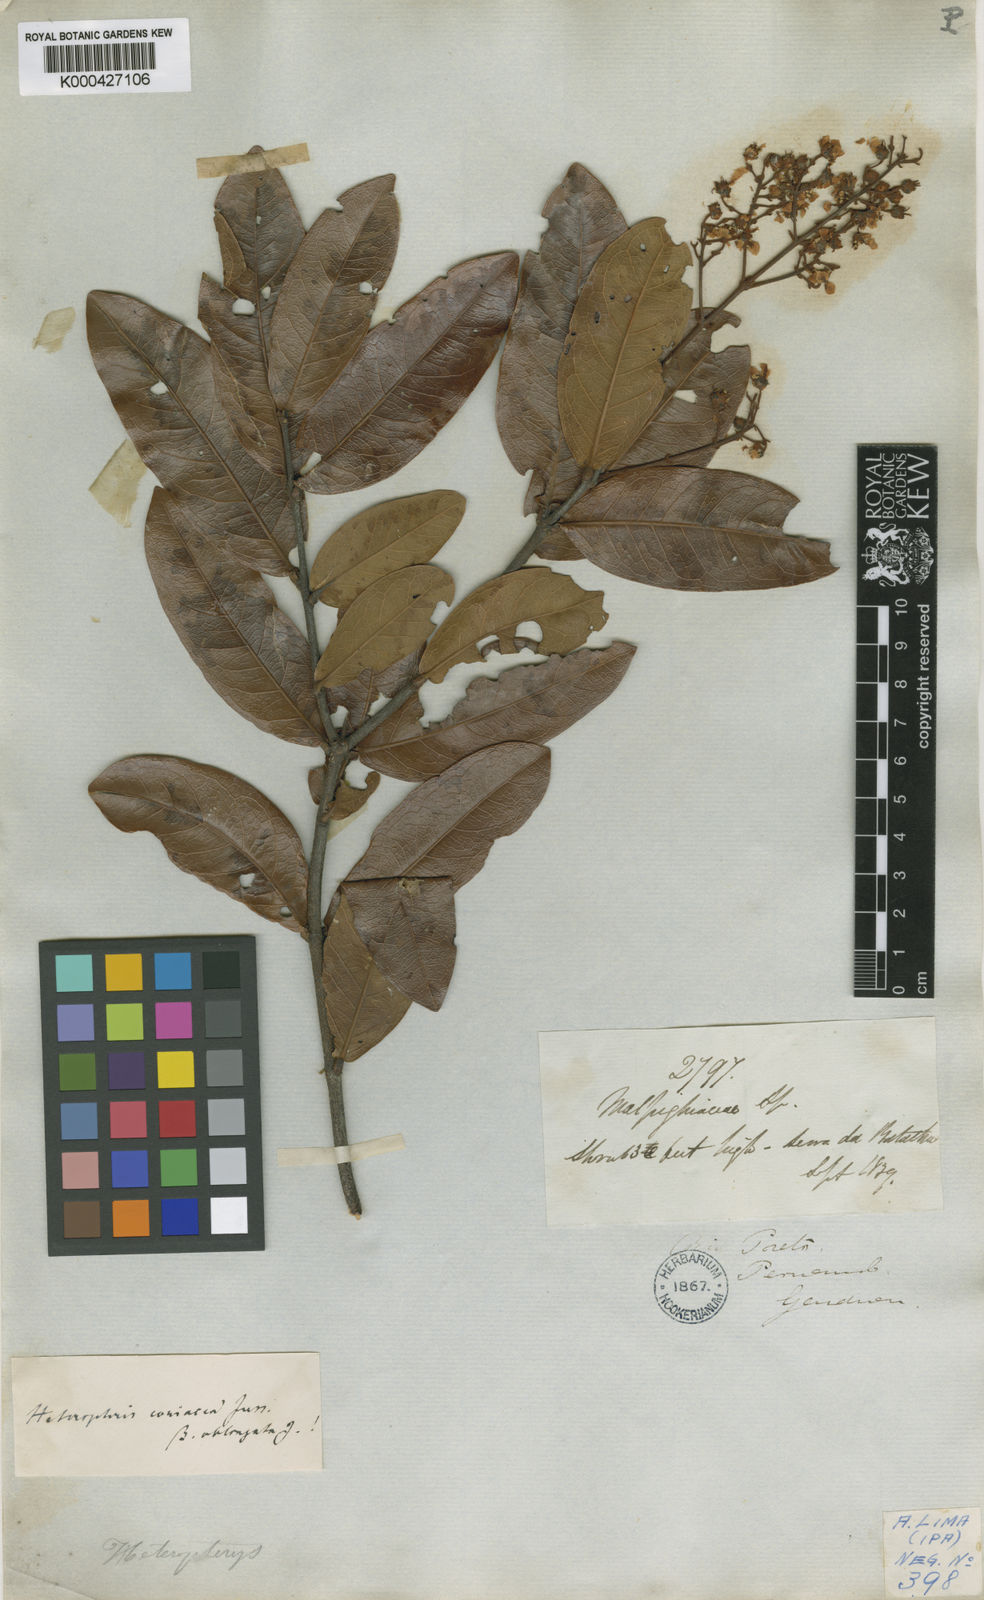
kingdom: Plantae
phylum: Tracheophyta
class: Magnoliopsida
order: Malpighiales
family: Malpighiaceae
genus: Heteropterys
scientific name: Heteropterys coriacea
